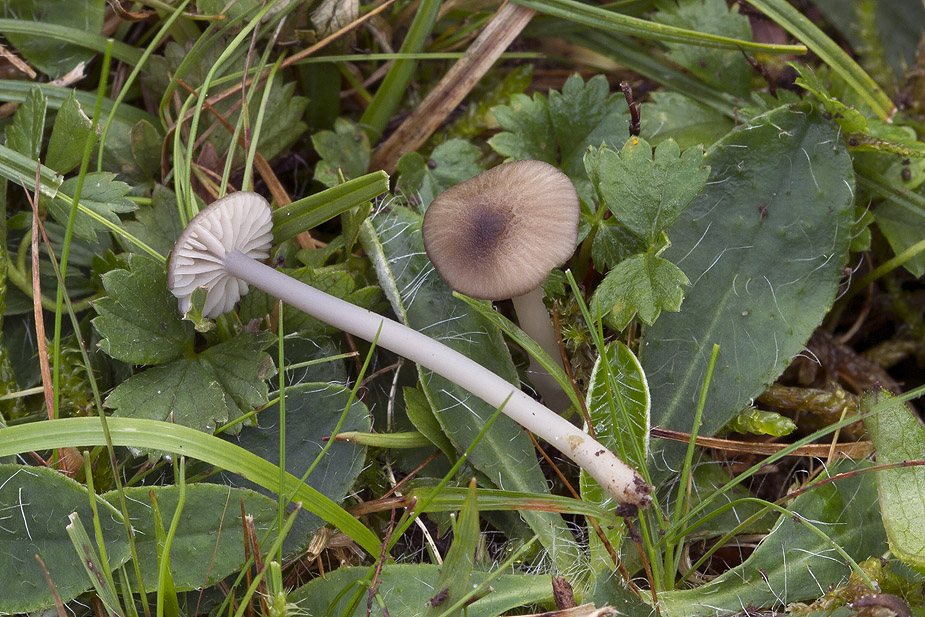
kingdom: Fungi
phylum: Basidiomycota
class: Agaricomycetes
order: Agaricales
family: Entolomataceae
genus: Entoloma
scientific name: Entoloma exile
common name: rødplettet rødblad
